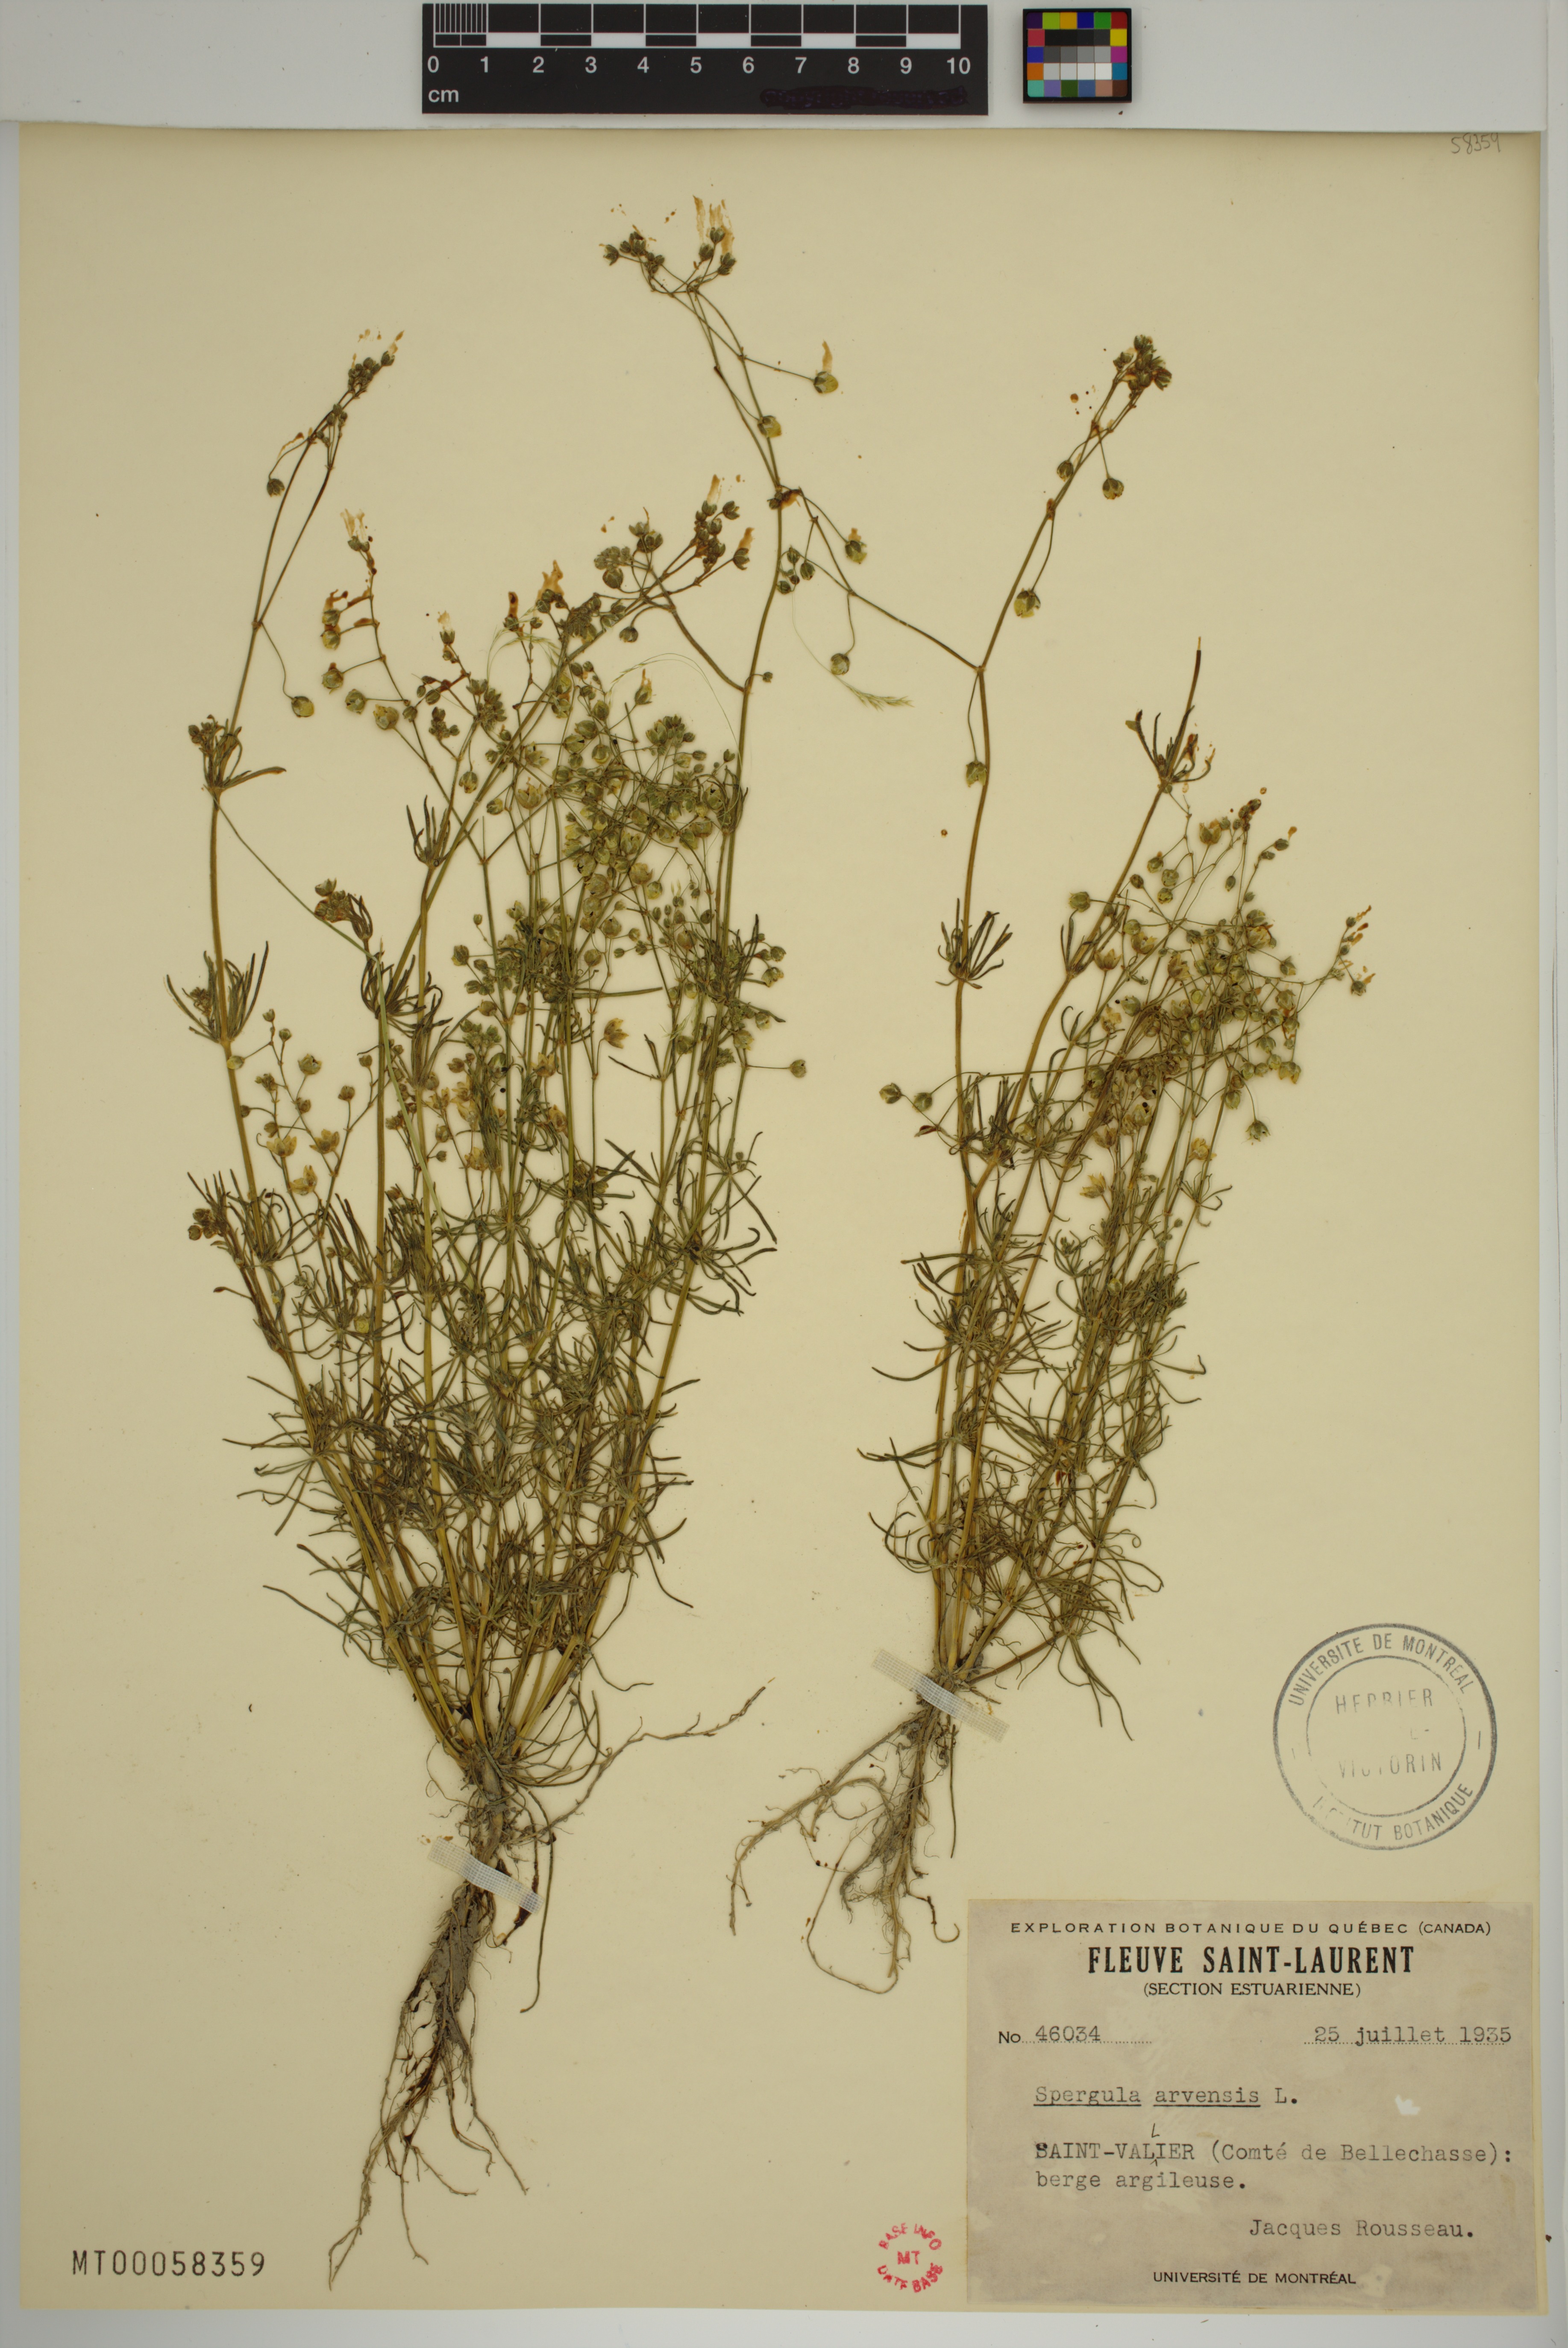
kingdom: Plantae
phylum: Tracheophyta
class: Magnoliopsida
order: Caryophyllales
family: Caryophyllaceae
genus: Spergula
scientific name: Spergula arvensis
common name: Corn spurrey
